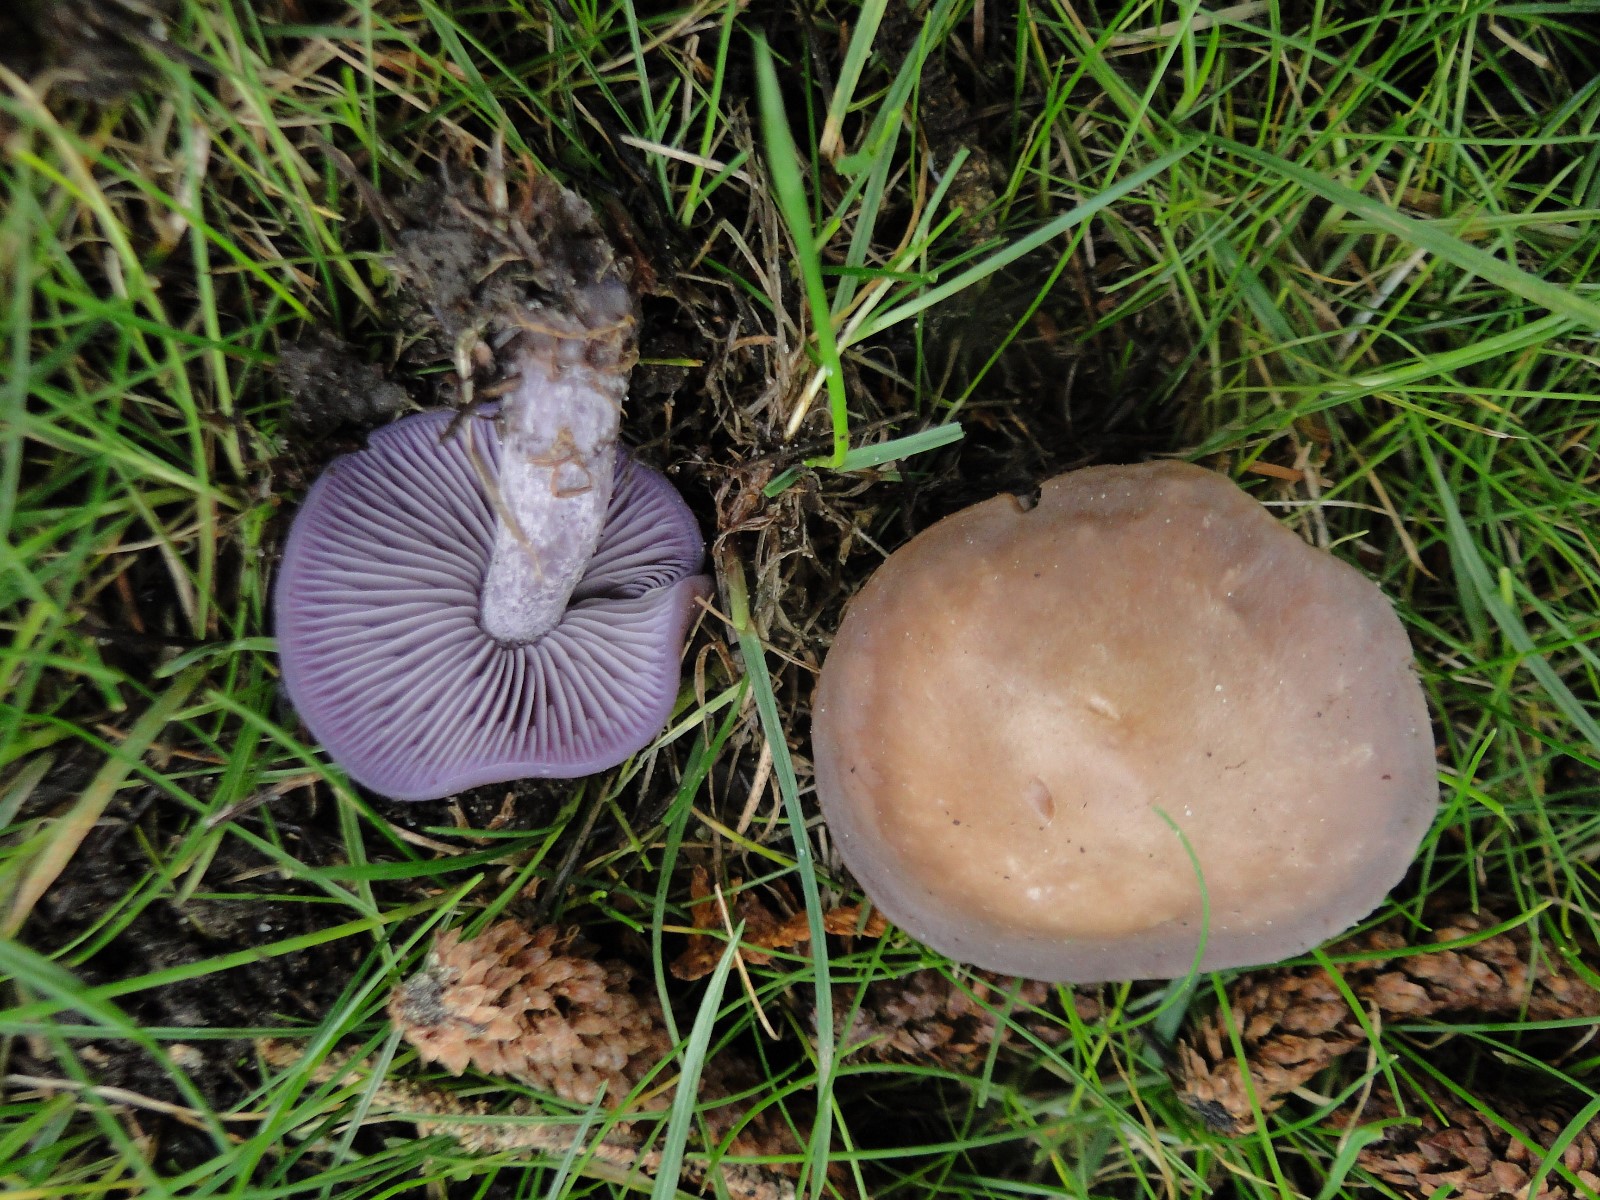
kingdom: Fungi
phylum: Basidiomycota
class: Agaricomycetes
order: Agaricales
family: Tricholomataceae
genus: Lepista
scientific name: Lepista nuda
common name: violet hekseringshat
